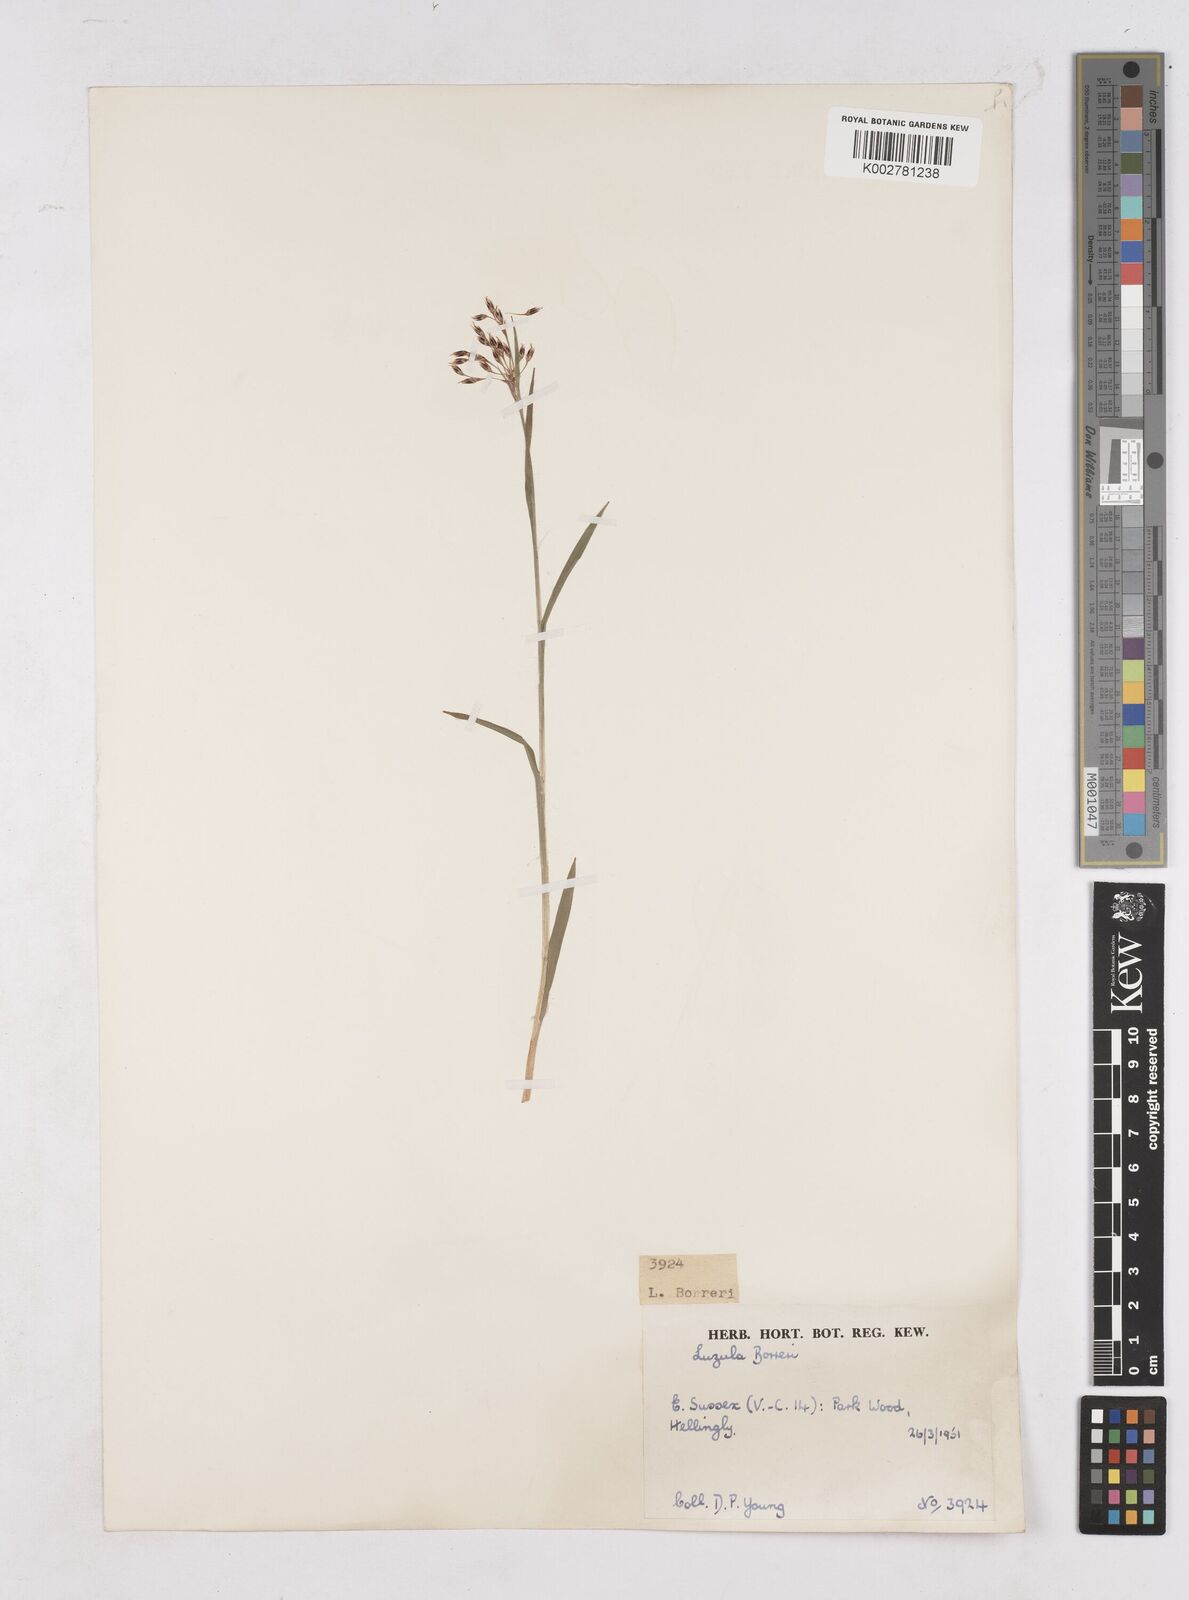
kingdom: Plantae
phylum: Tracheophyta
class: Liliopsida
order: Poales
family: Juncaceae
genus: Luzula
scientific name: Luzula forsteri
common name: Southern wood-rush
